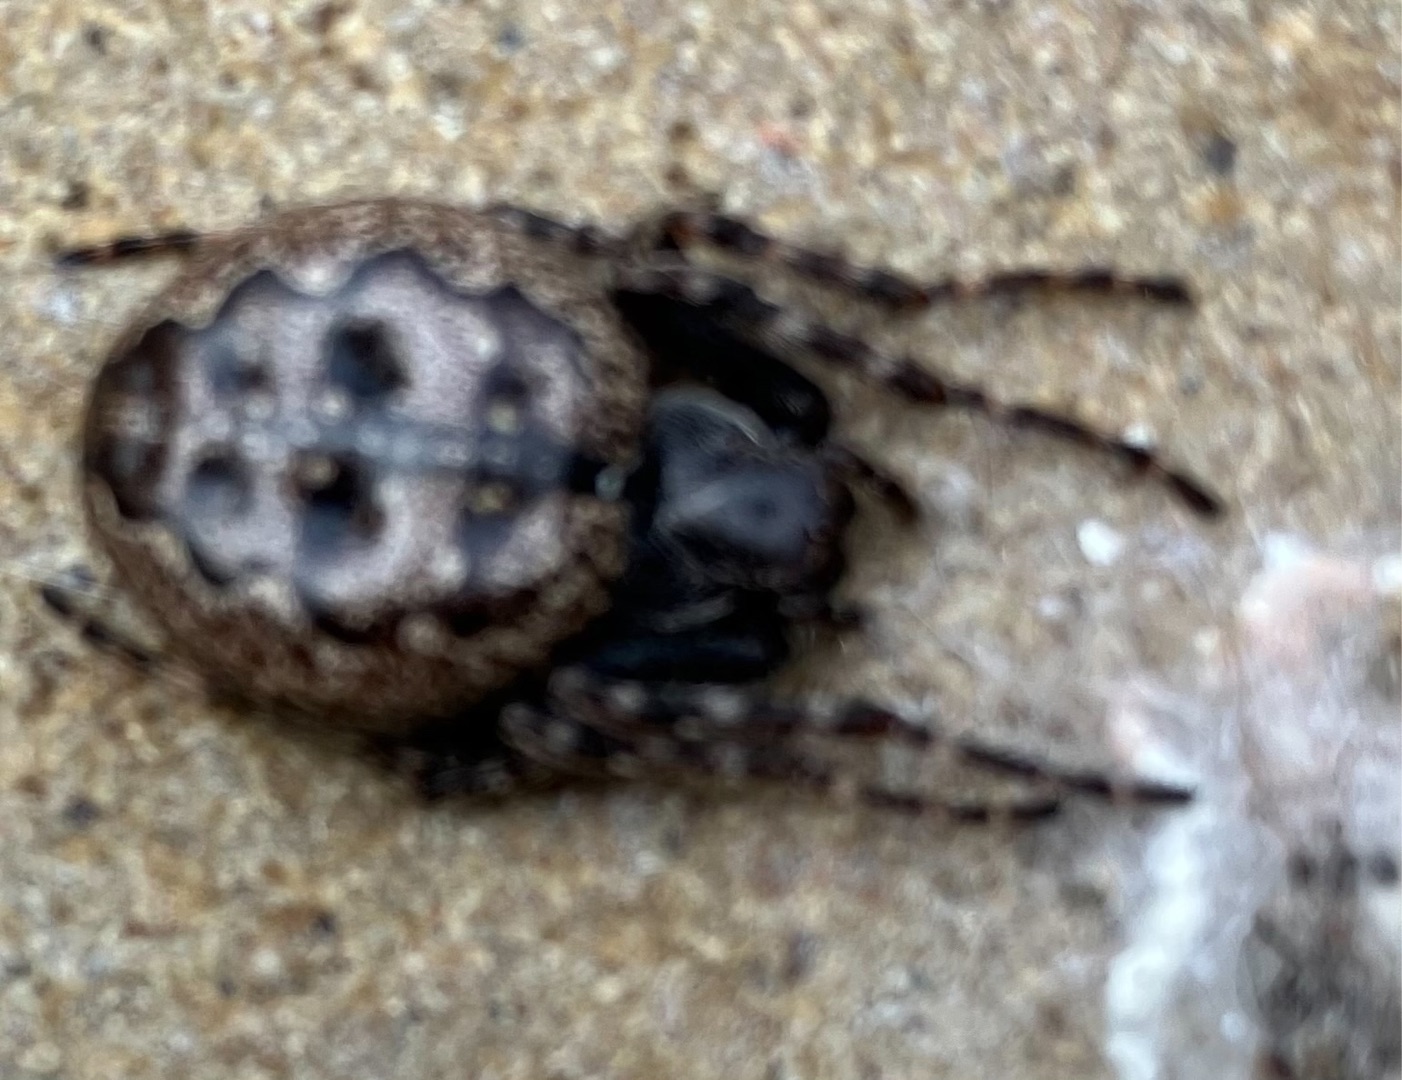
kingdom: Animalia
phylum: Arthropoda
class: Arachnida
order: Araneae
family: Araneidae
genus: Nuctenea
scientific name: Nuctenea umbratica
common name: Flad hjulspinder
